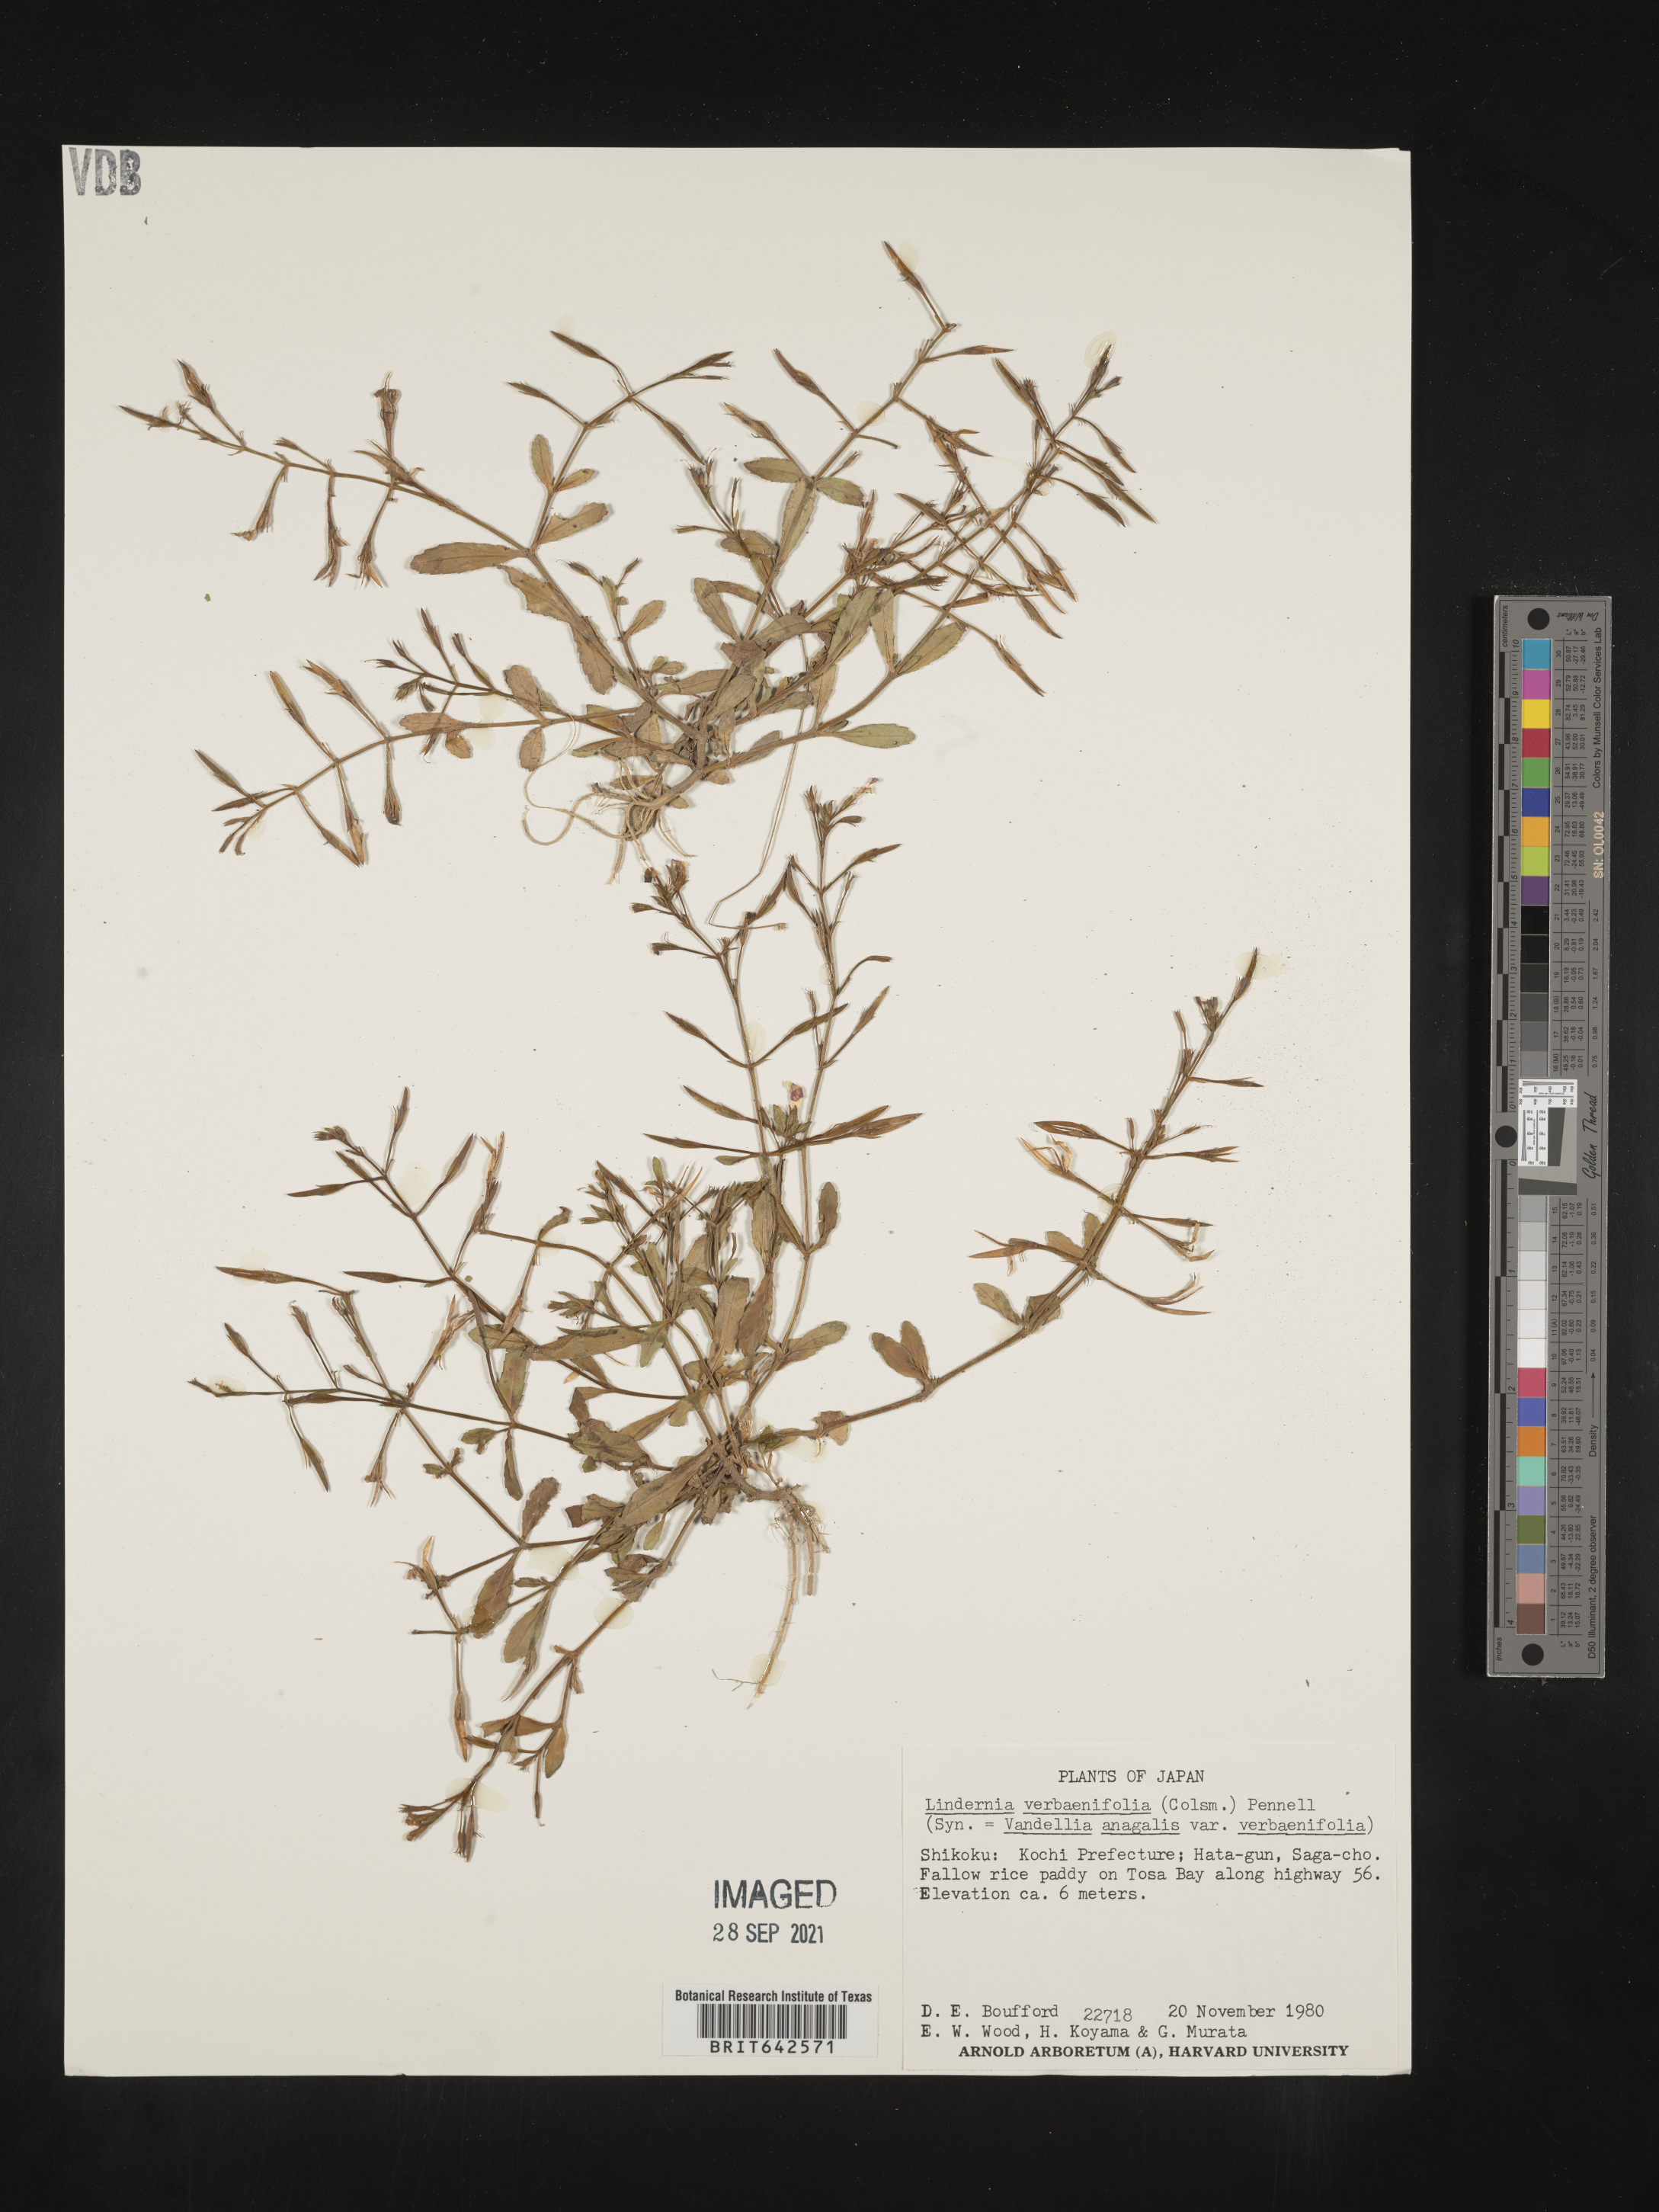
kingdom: Plantae
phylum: Tracheophyta
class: Magnoliopsida
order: Lamiales
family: Linderniaceae
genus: Lindernia
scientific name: Lindernia
